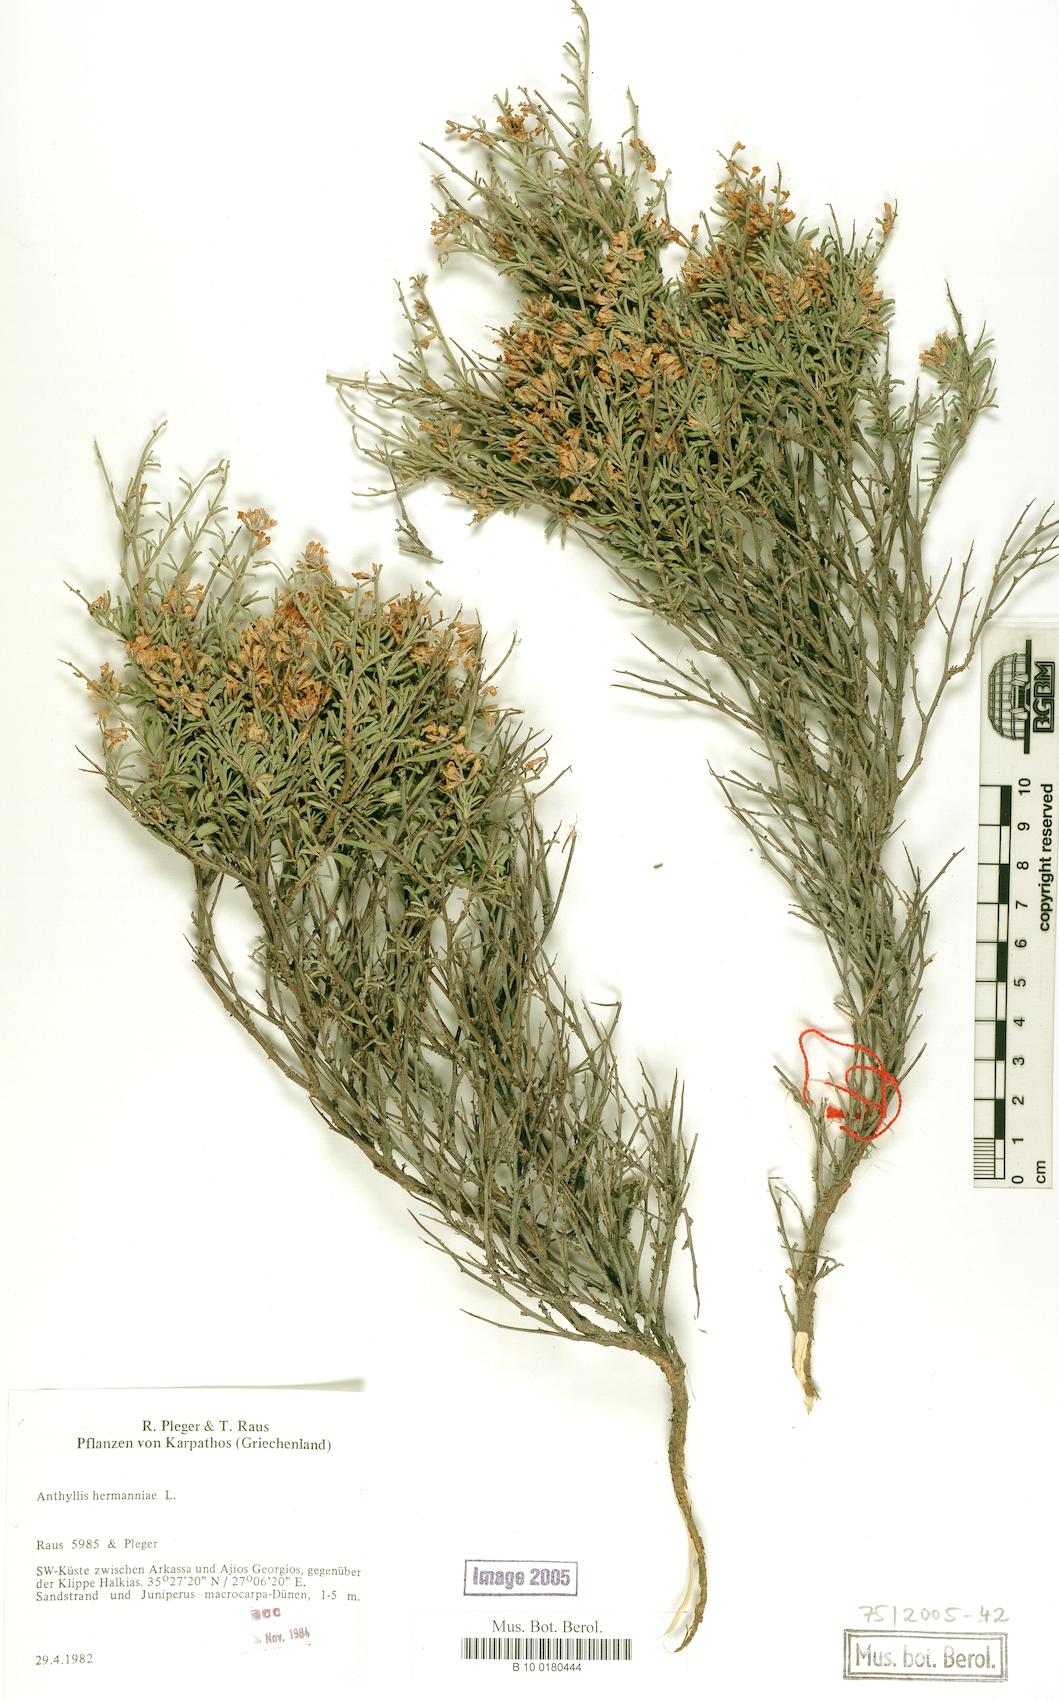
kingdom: Plantae
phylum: Tracheophyta
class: Magnoliopsida
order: Fabales
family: Fabaceae
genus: Anthyllis
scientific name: Anthyllis hermanniae
